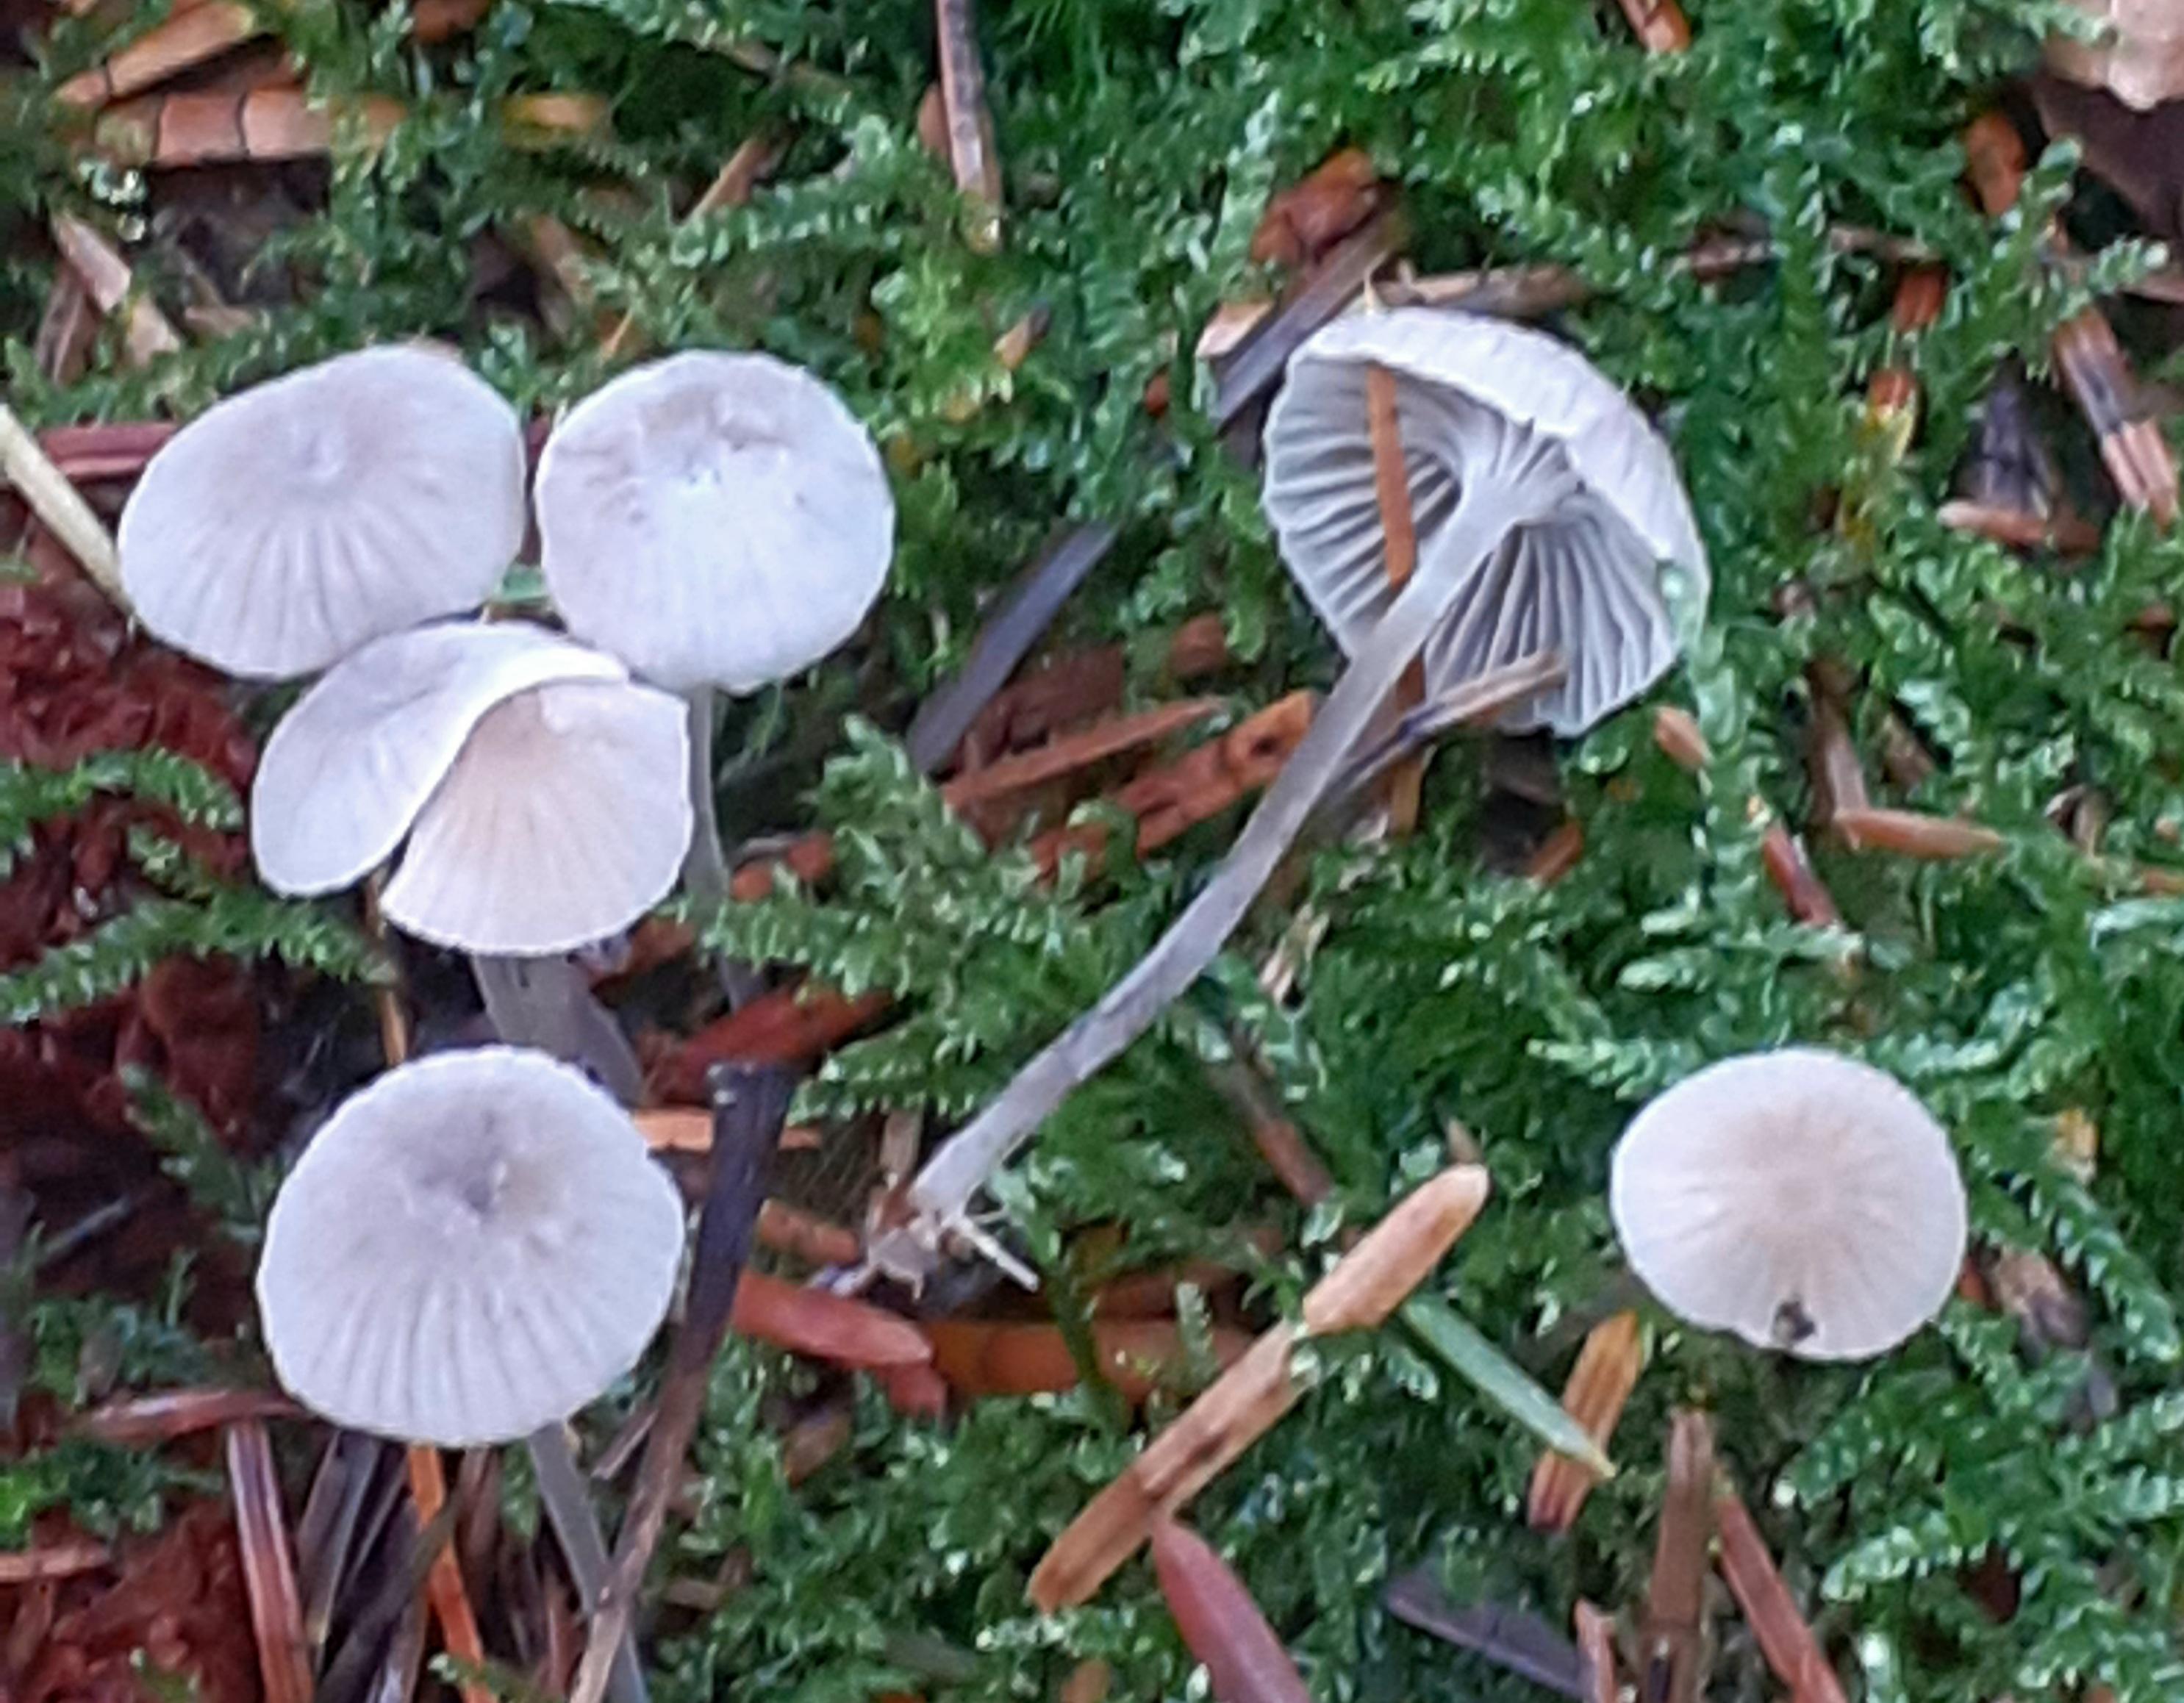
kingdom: Fungi
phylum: Basidiomycota
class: Agaricomycetes
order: Agaricales
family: Mycenaceae
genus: Mycena
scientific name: Mycena cinerella
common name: mel-huesvamp
